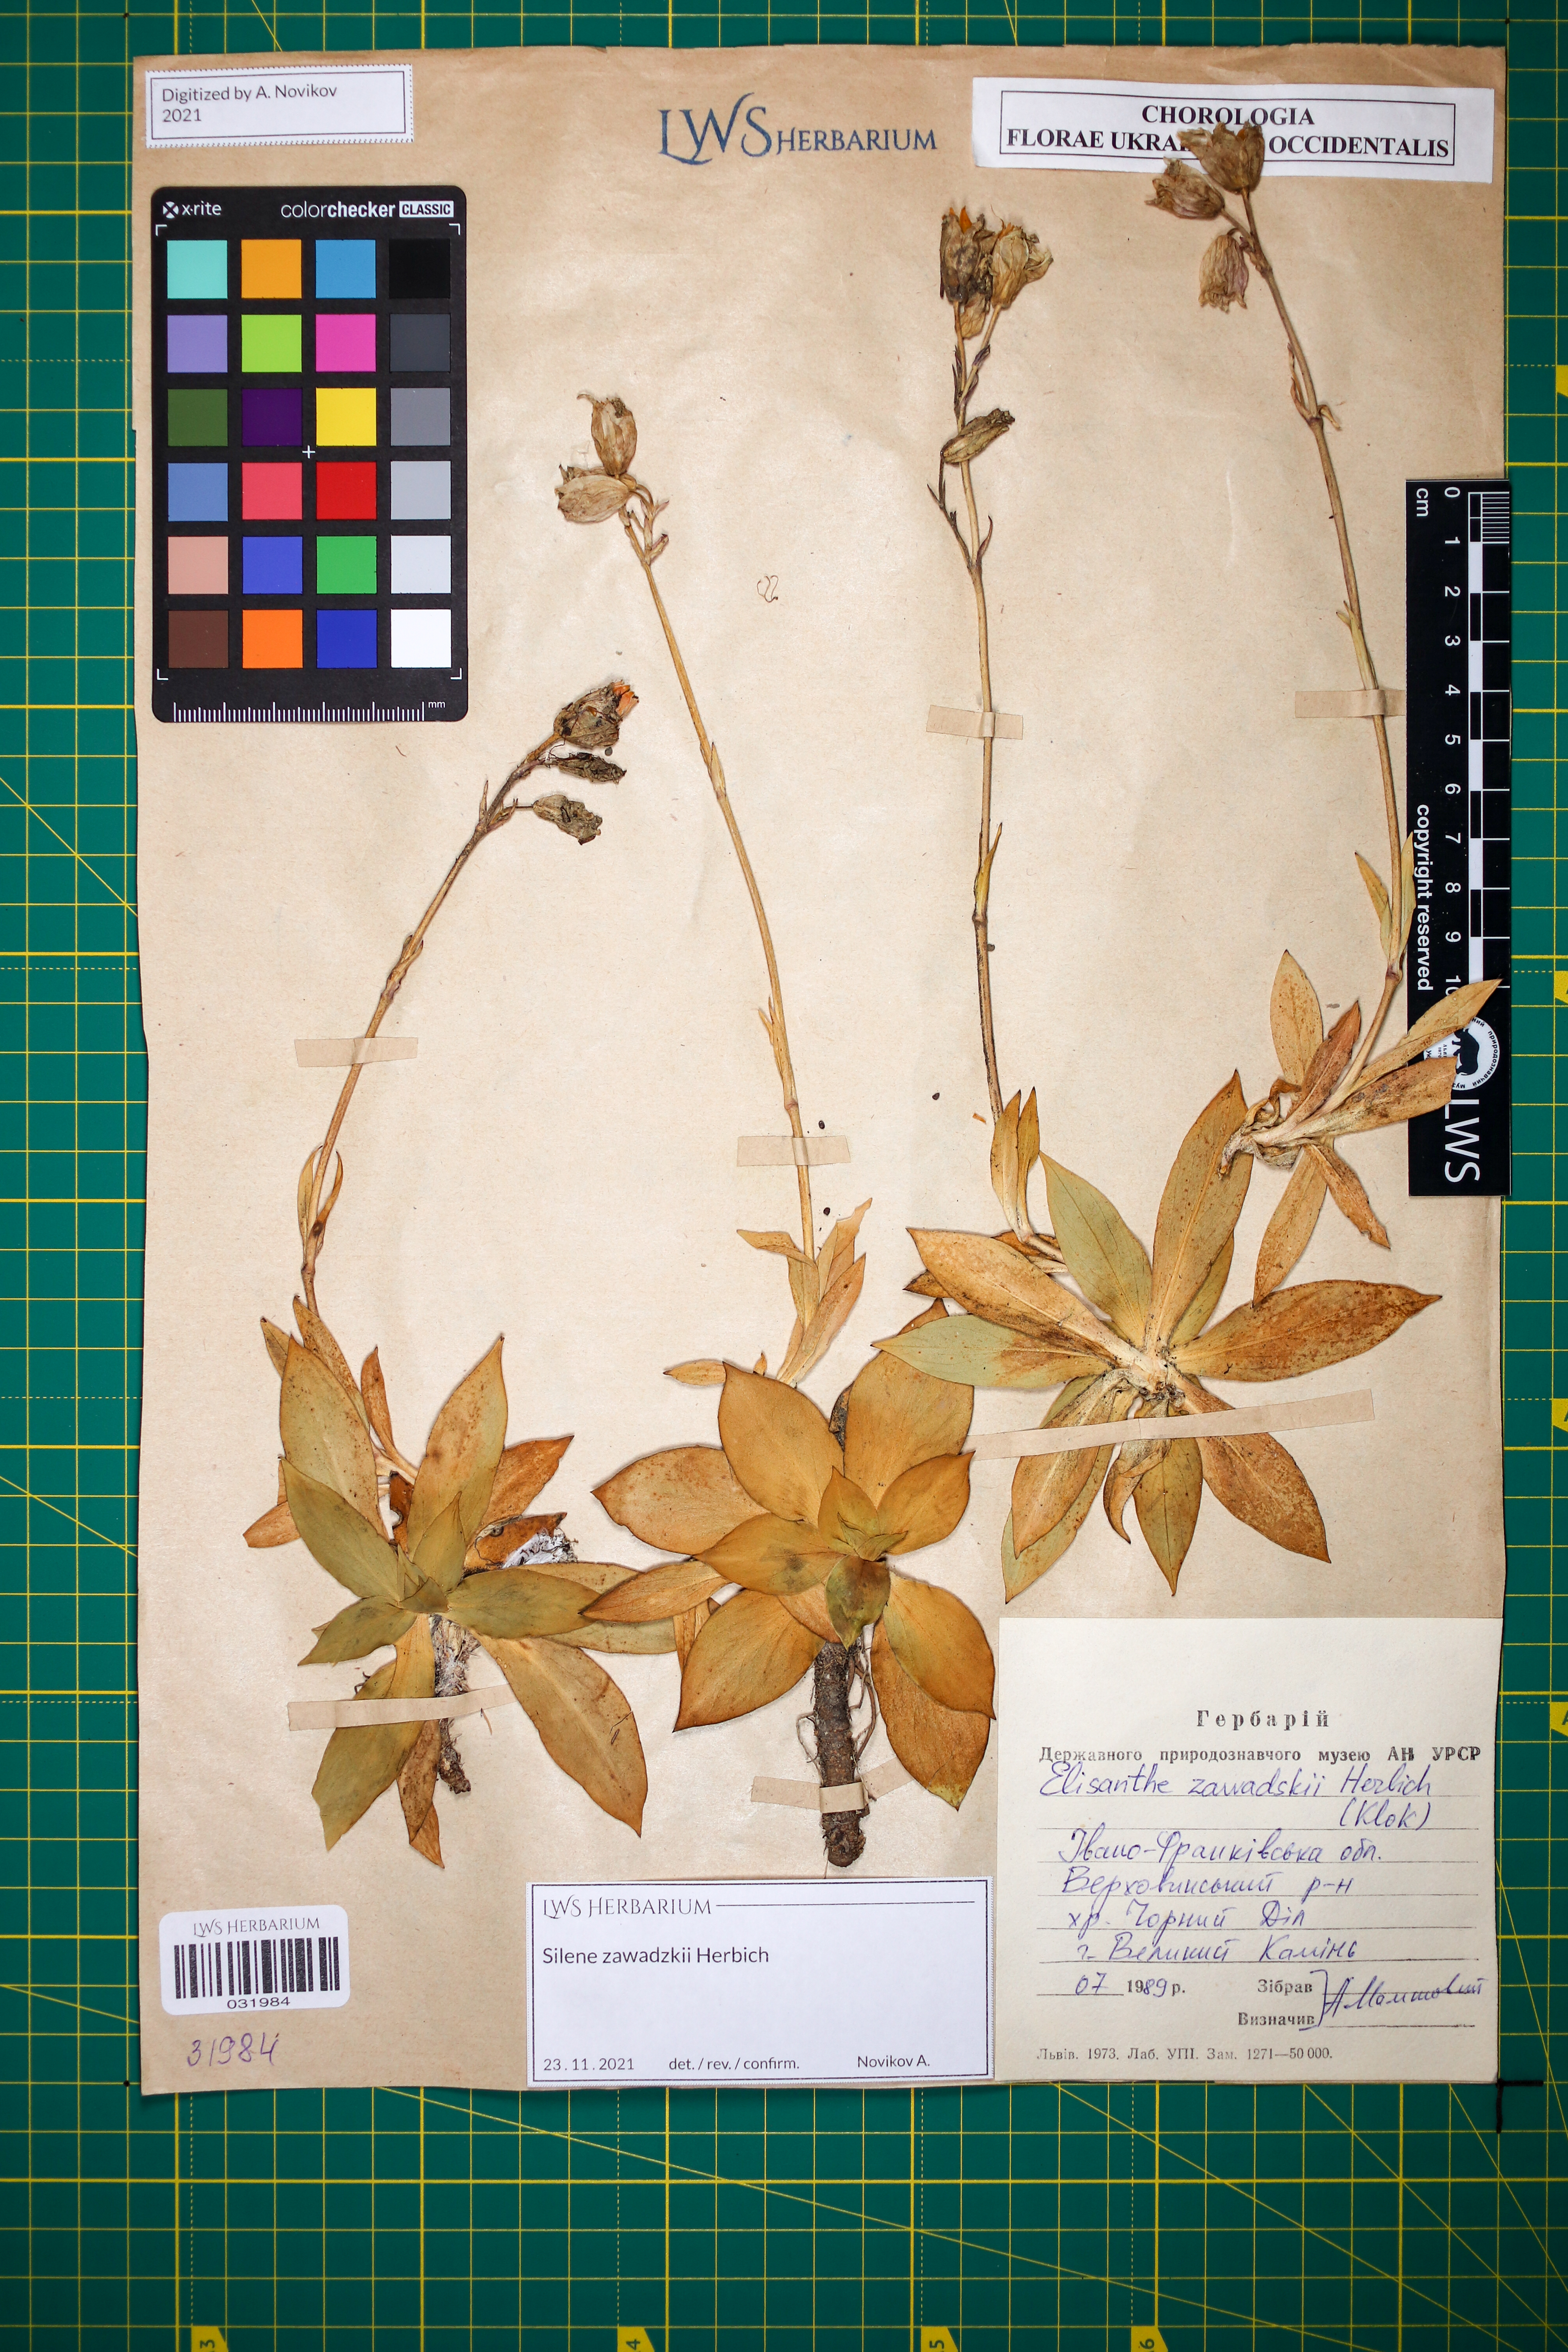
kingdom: Plantae
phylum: Tracheophyta
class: Magnoliopsida
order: Caryophyllales
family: Caryophyllaceae
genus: Silene
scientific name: Silene zawadzkii
